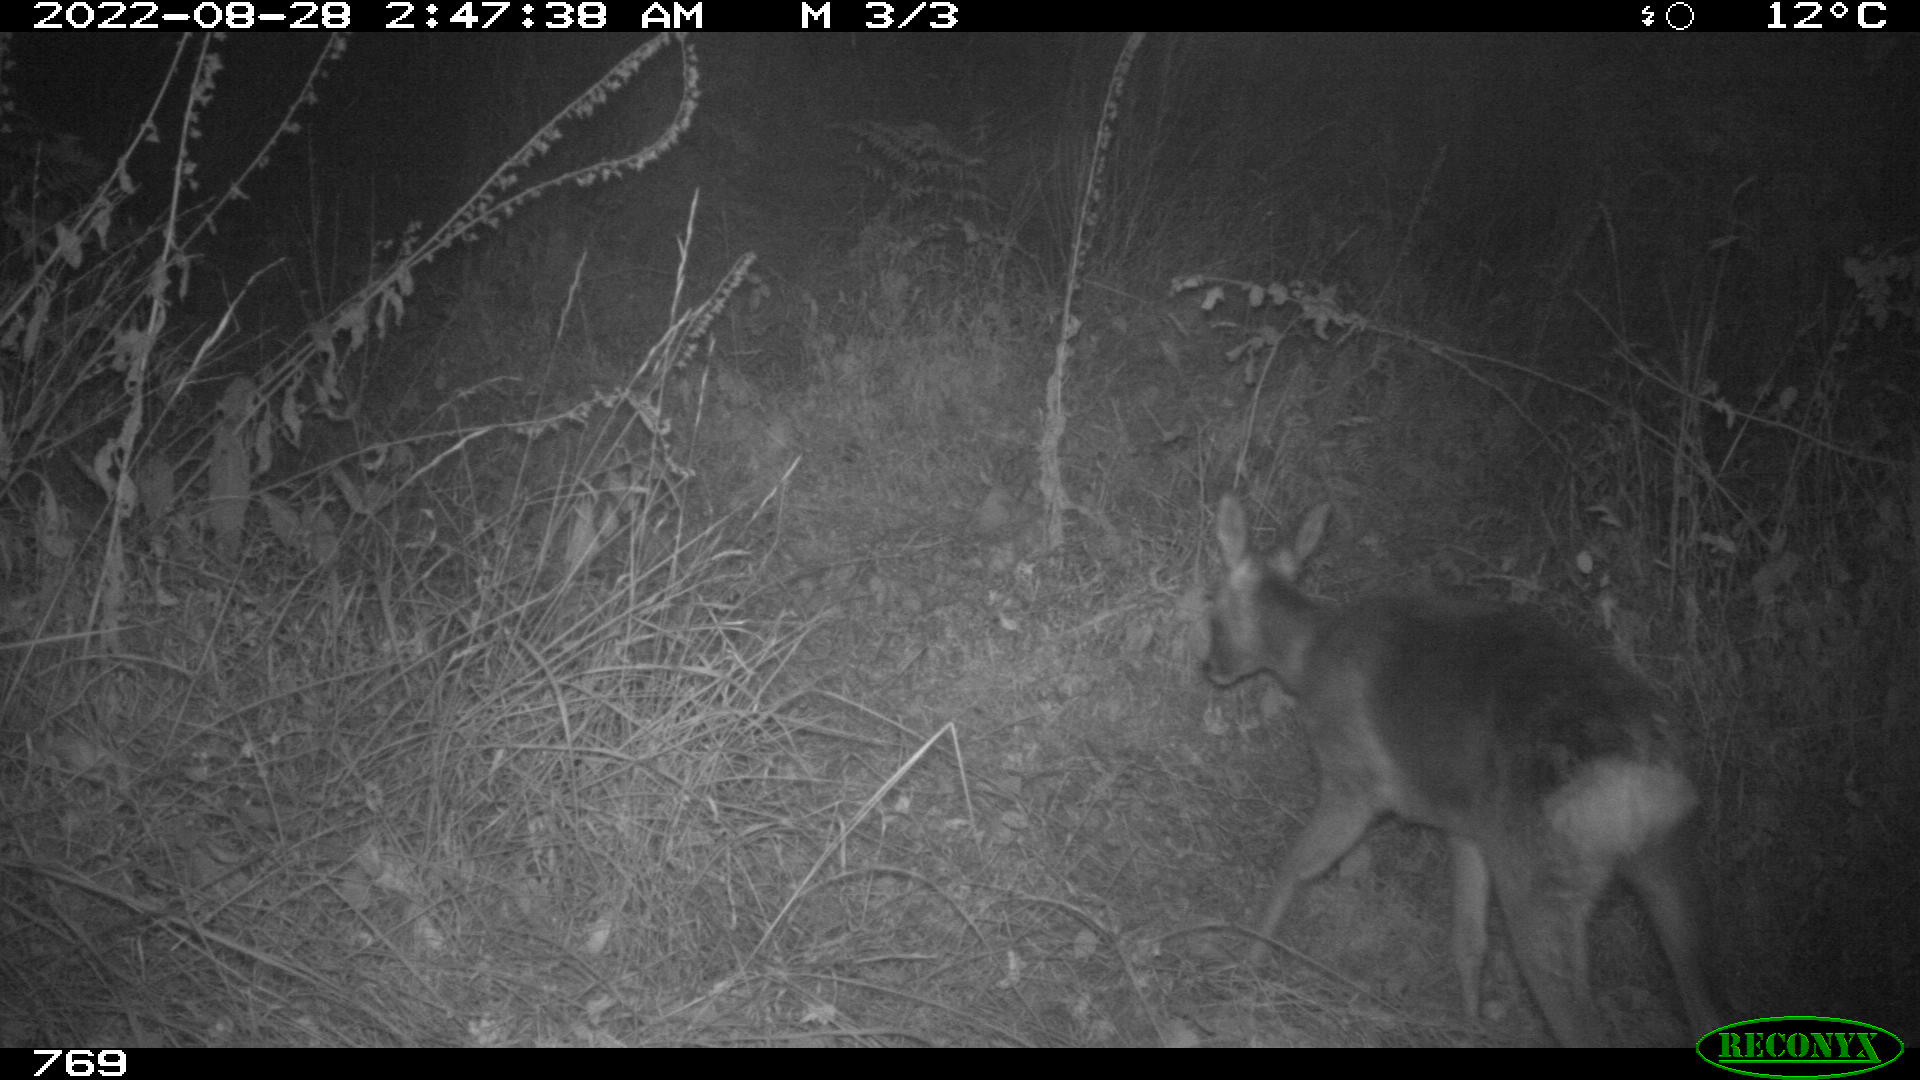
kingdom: Animalia
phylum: Chordata
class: Mammalia
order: Artiodactyla
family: Cervidae
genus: Capreolus
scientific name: Capreolus capreolus
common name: Western roe deer
